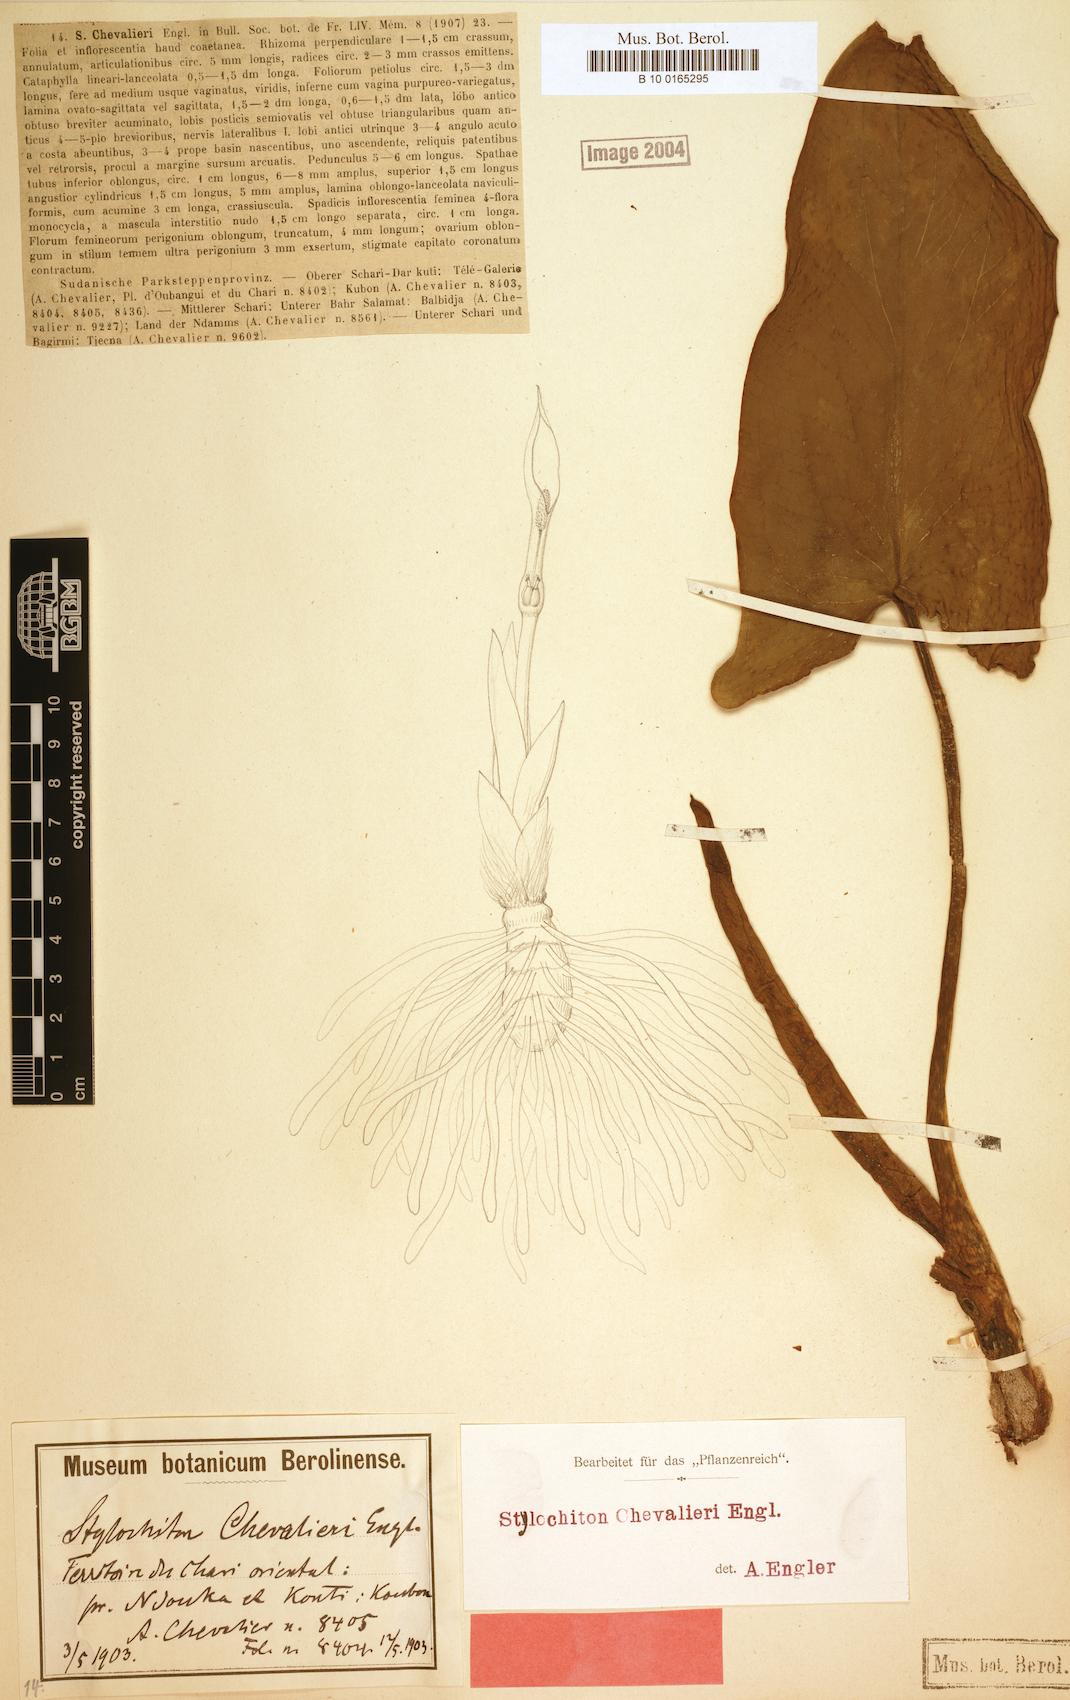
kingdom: Plantae
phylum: Tracheophyta
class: Liliopsida
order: Alismatales
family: Araceae
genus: Stylochiton
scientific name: Stylochiton chevalieri
